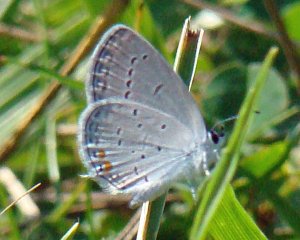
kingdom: Animalia
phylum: Arthropoda
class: Insecta
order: Lepidoptera
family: Lycaenidae
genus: Elkalyce
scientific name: Elkalyce comyntas
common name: Eastern Tailed-Blue
